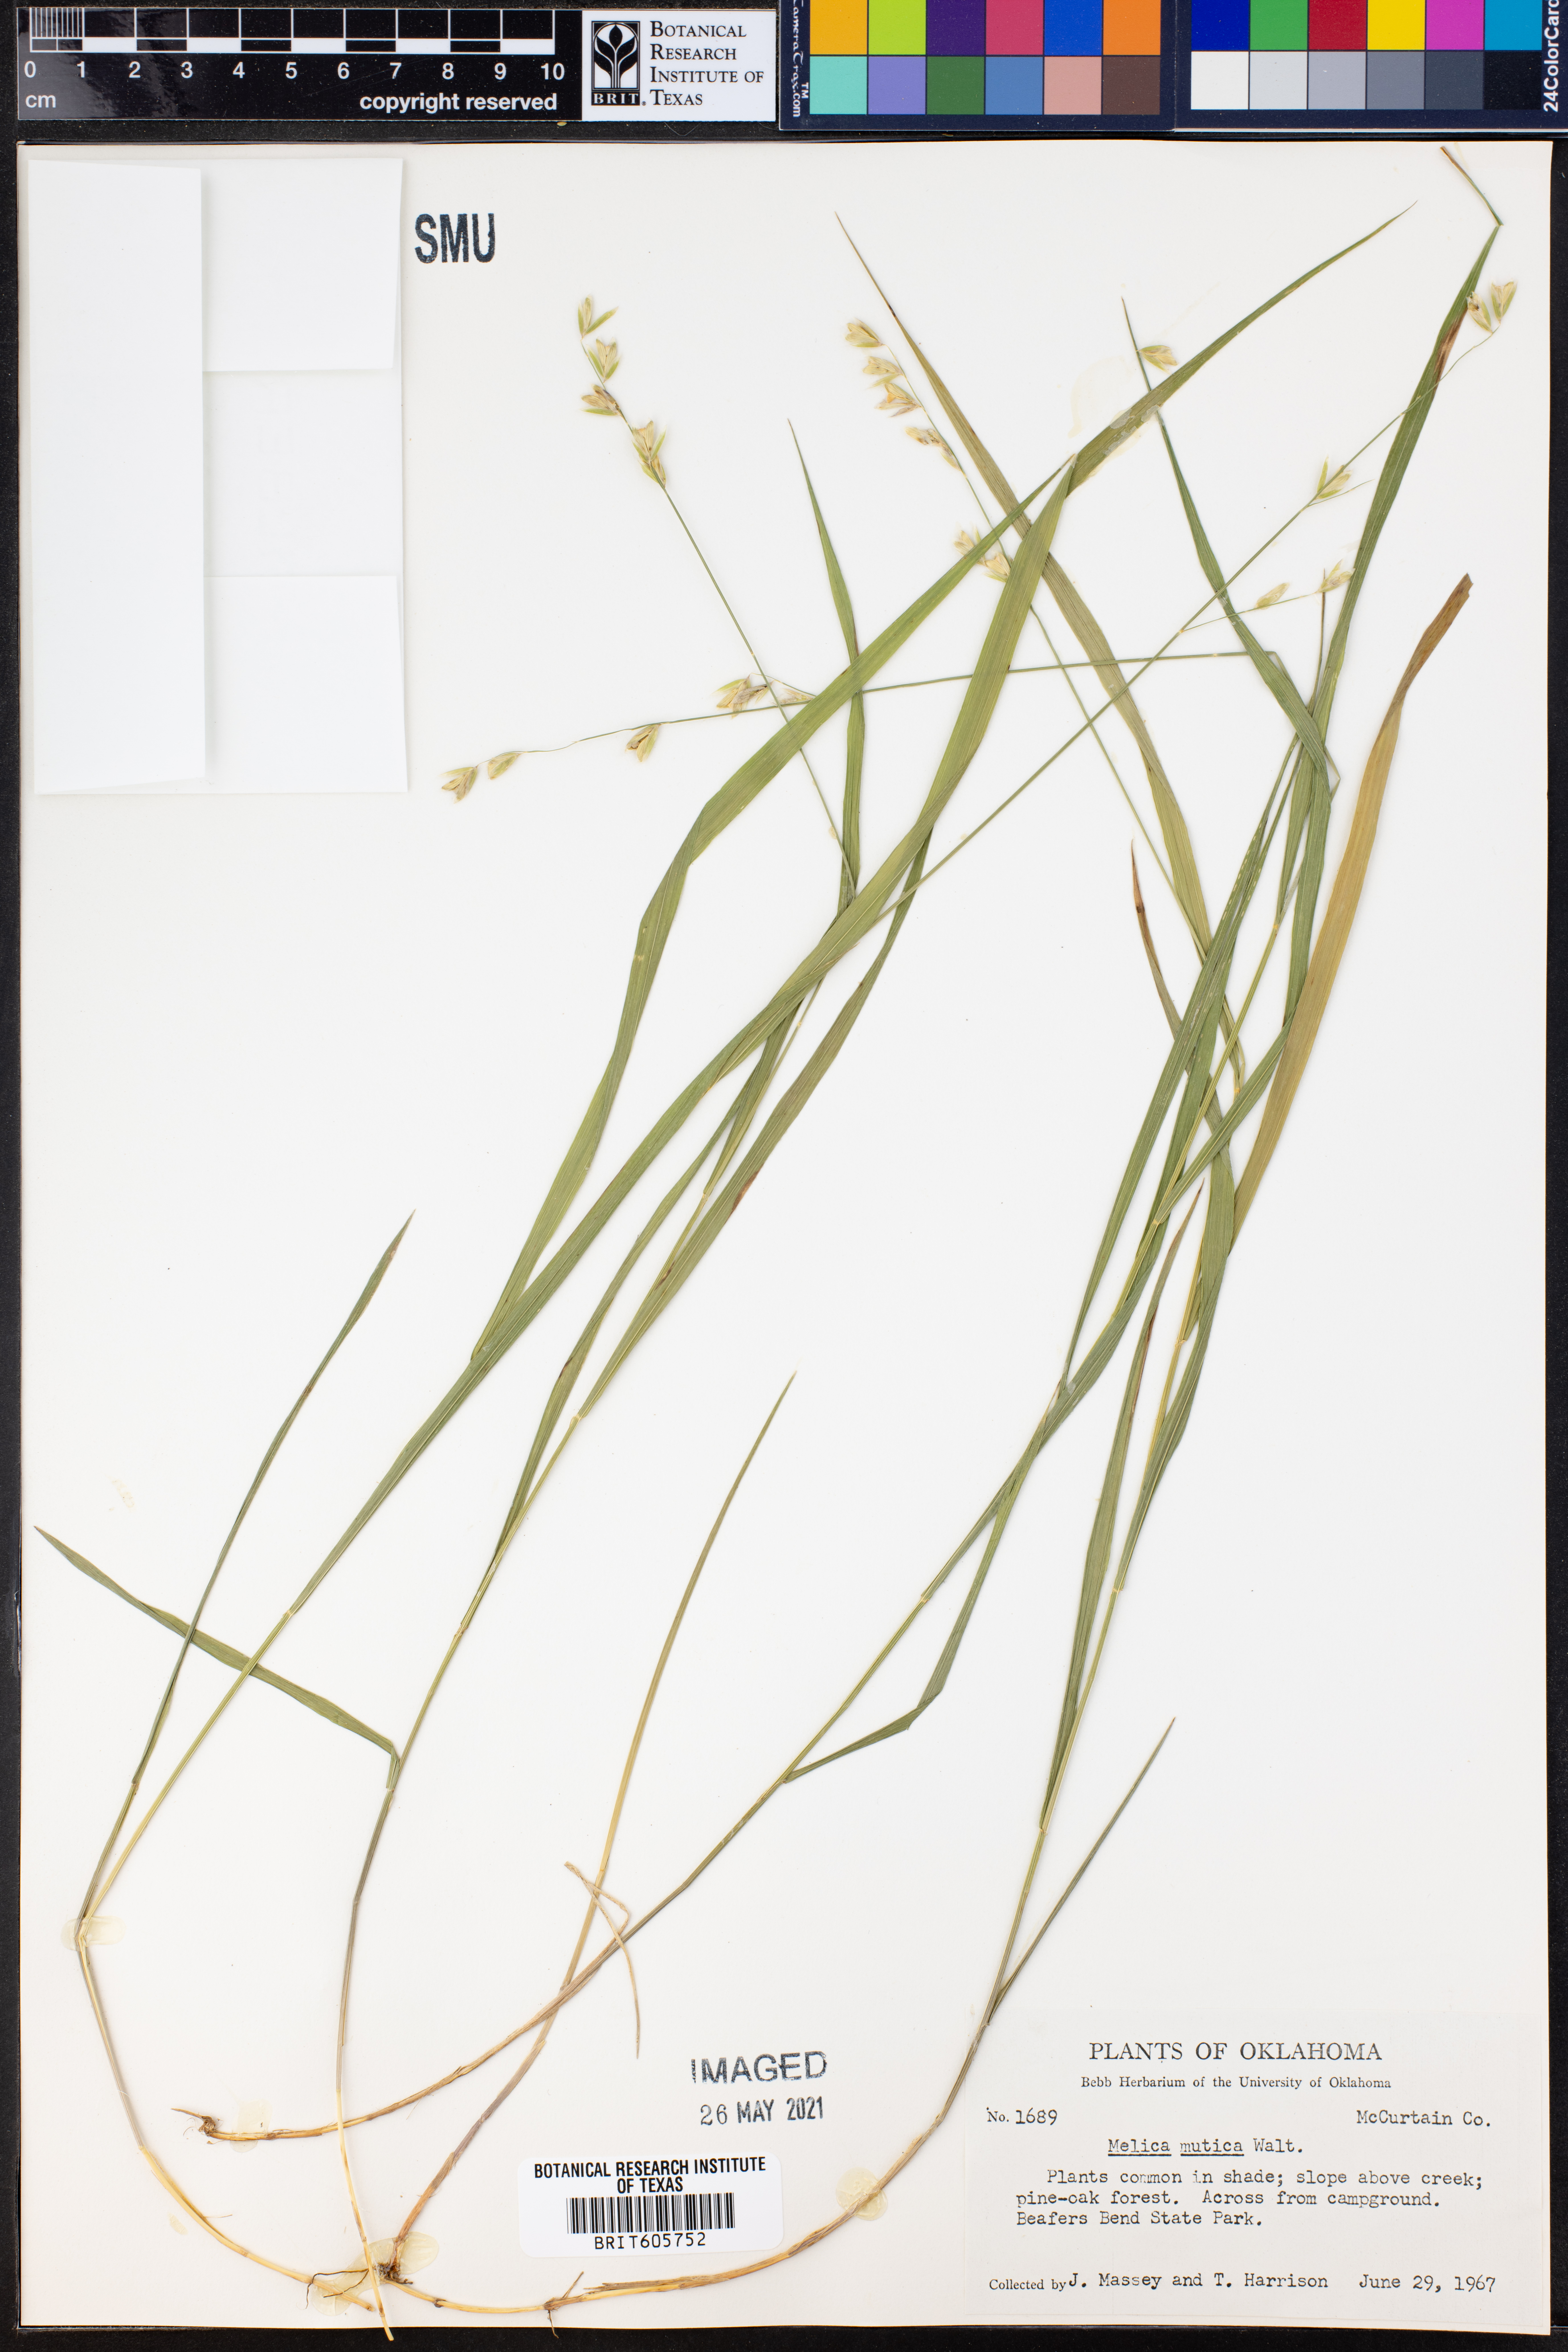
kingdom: Plantae
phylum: Tracheophyta
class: Liliopsida
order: Poales
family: Poaceae
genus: Melica
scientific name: Melica mutica
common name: Two-flower melic
